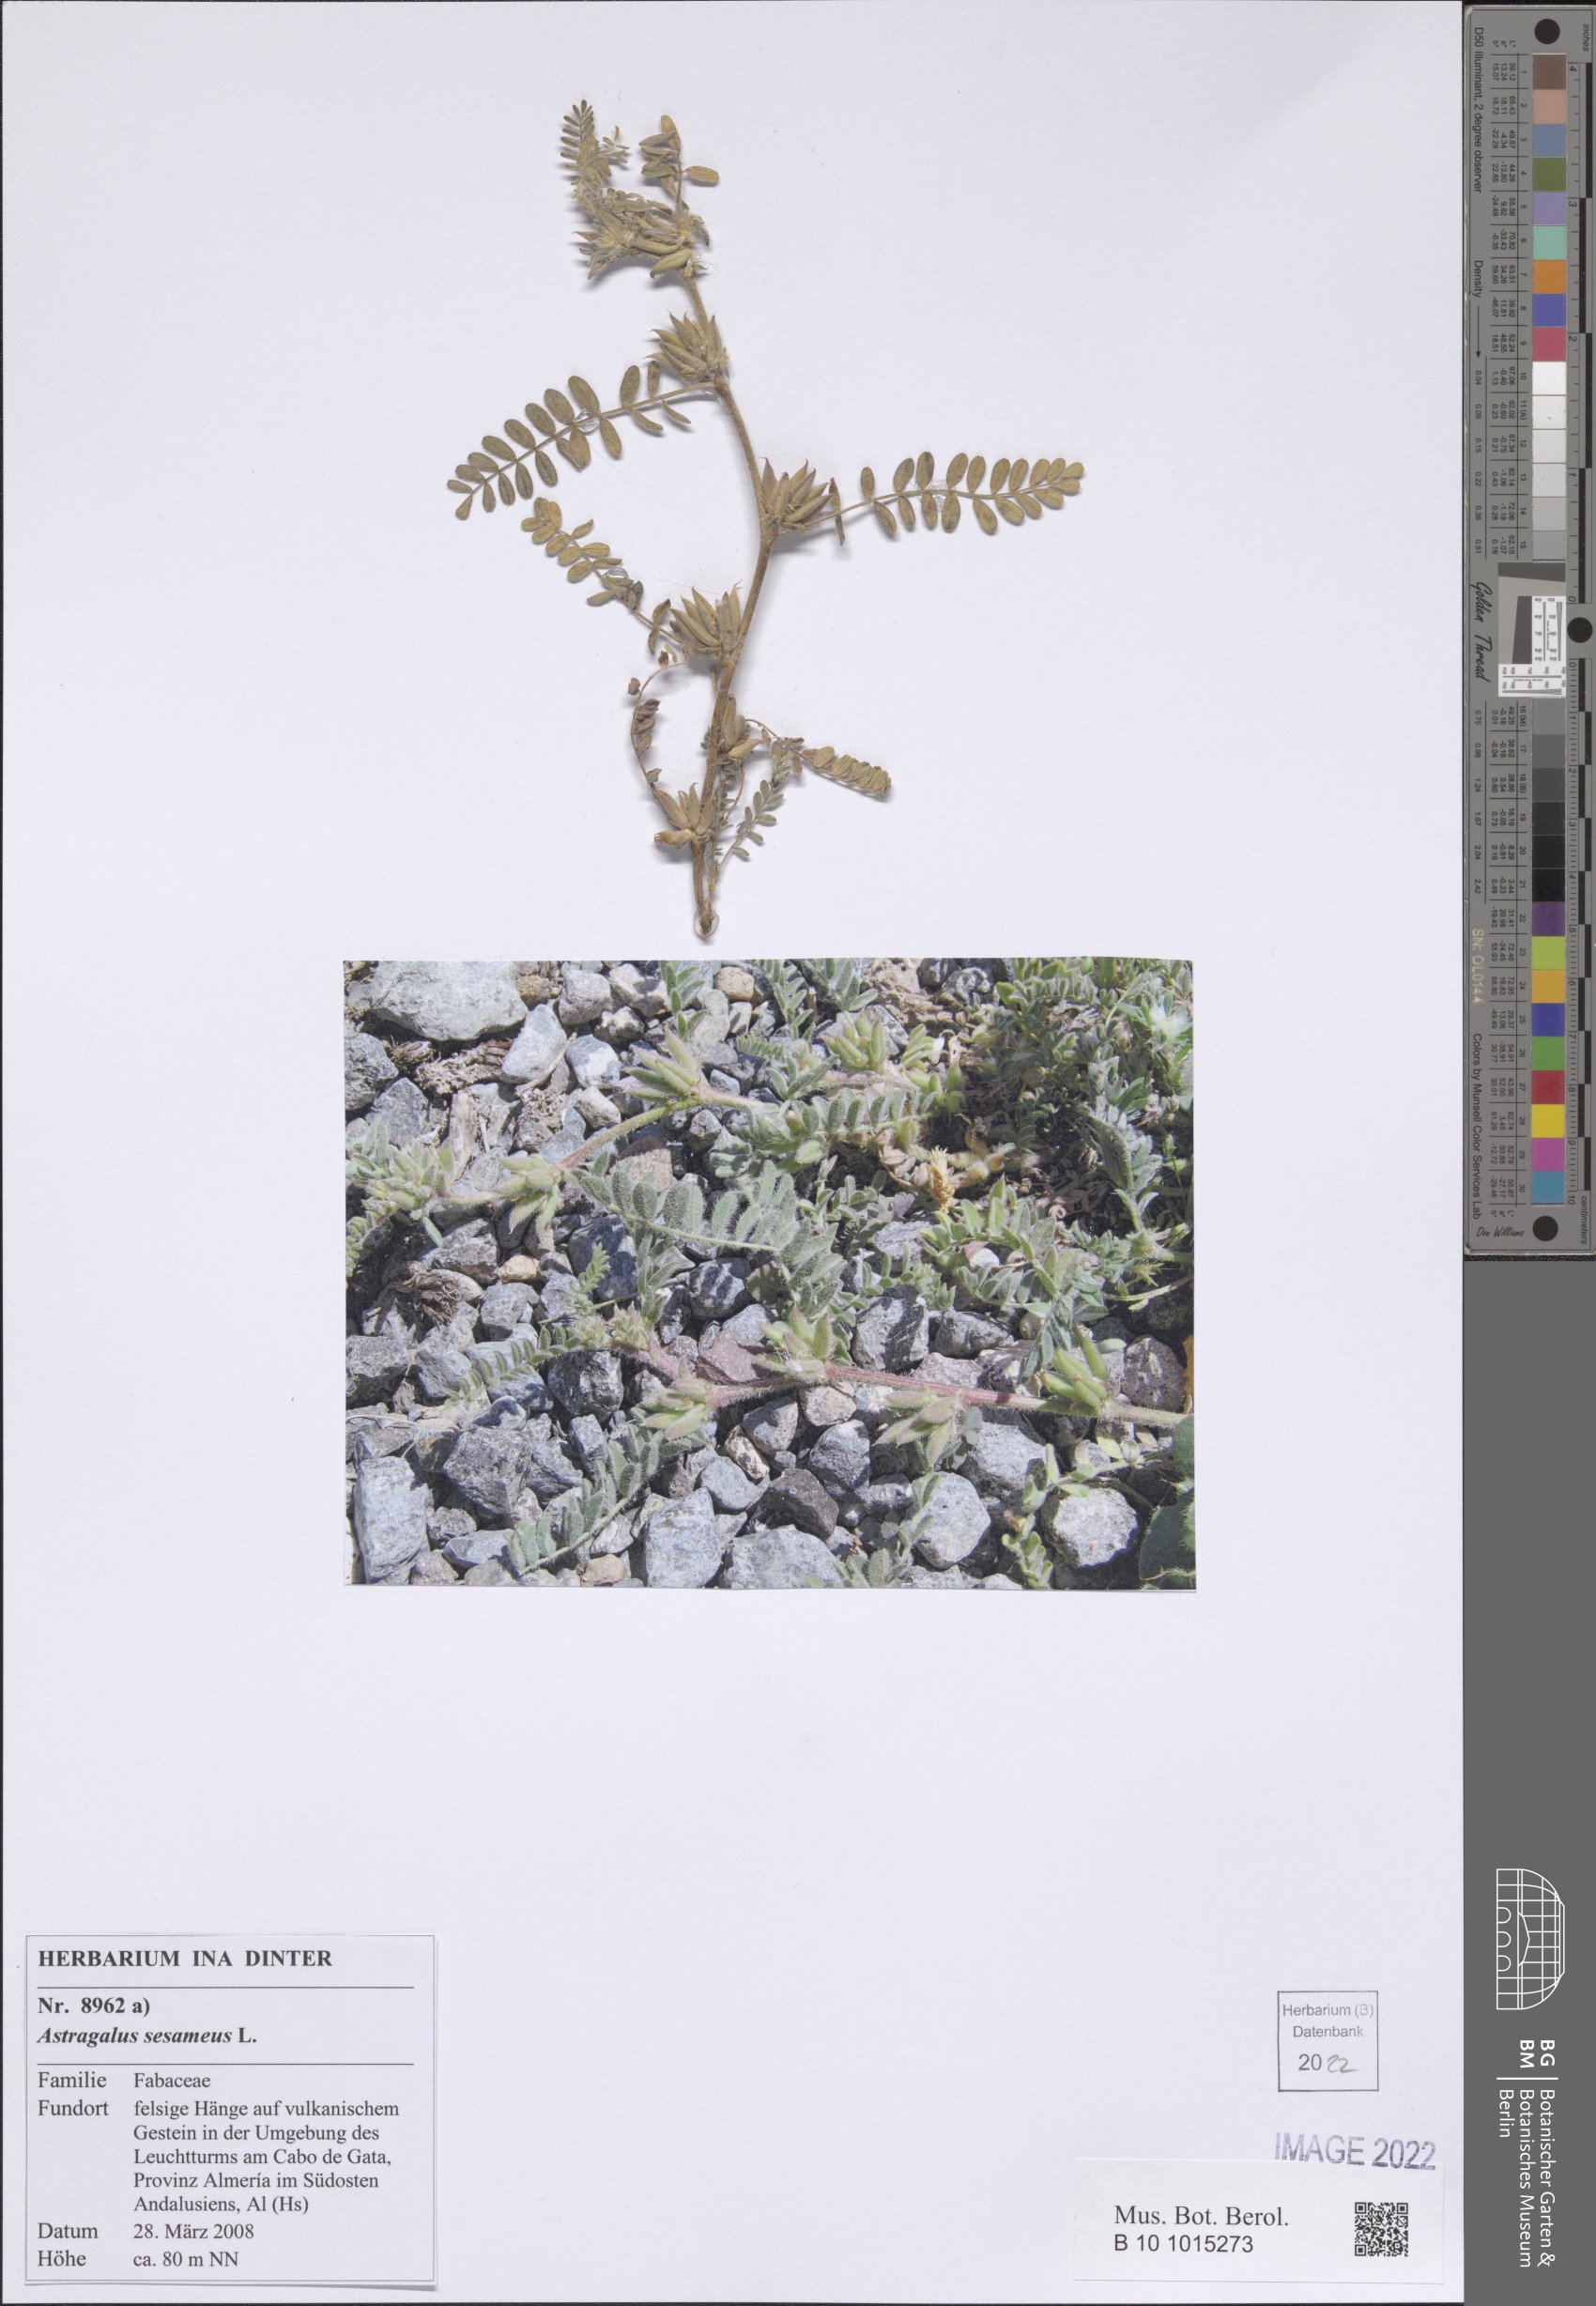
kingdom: Plantae
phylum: Tracheophyta
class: Magnoliopsida
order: Fabales
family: Fabaceae
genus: Astragalus
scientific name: Astragalus sesameus
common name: Purple milk-vetch
